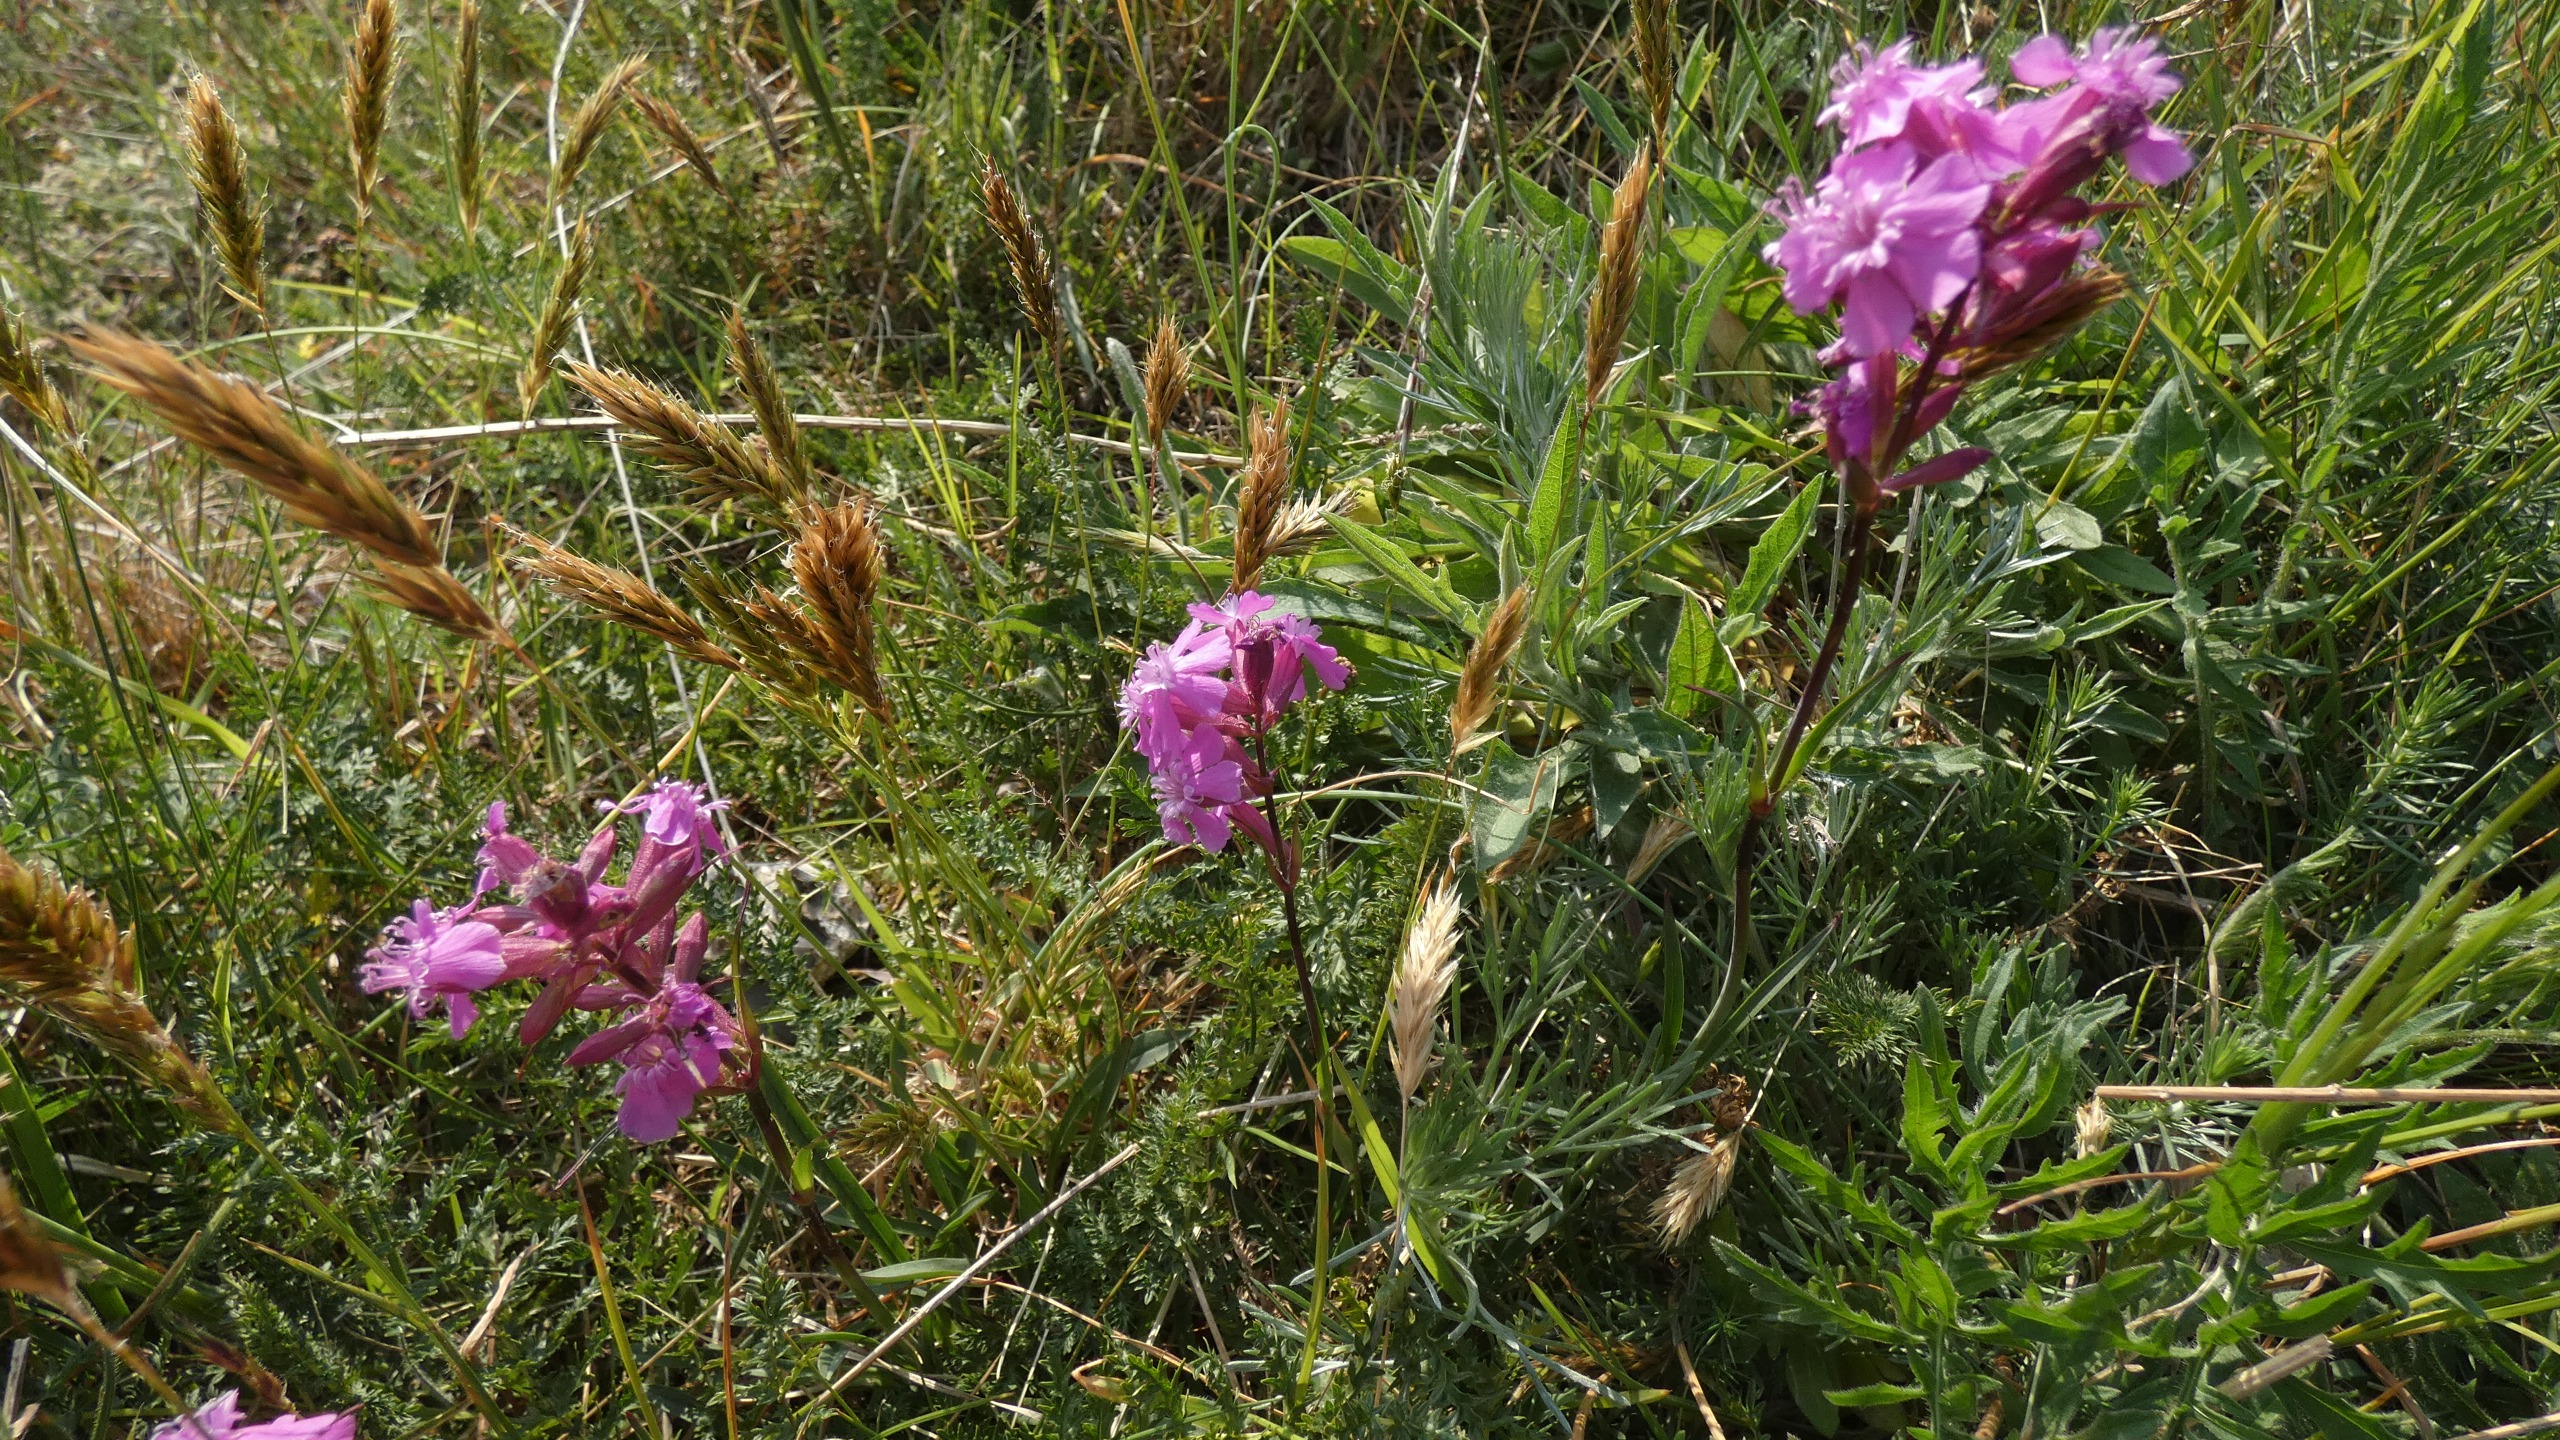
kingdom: Plantae
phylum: Tracheophyta
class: Magnoliopsida
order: Caryophyllales
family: Caryophyllaceae
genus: Viscaria
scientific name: Viscaria vulgaris
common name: Tjærenellike
